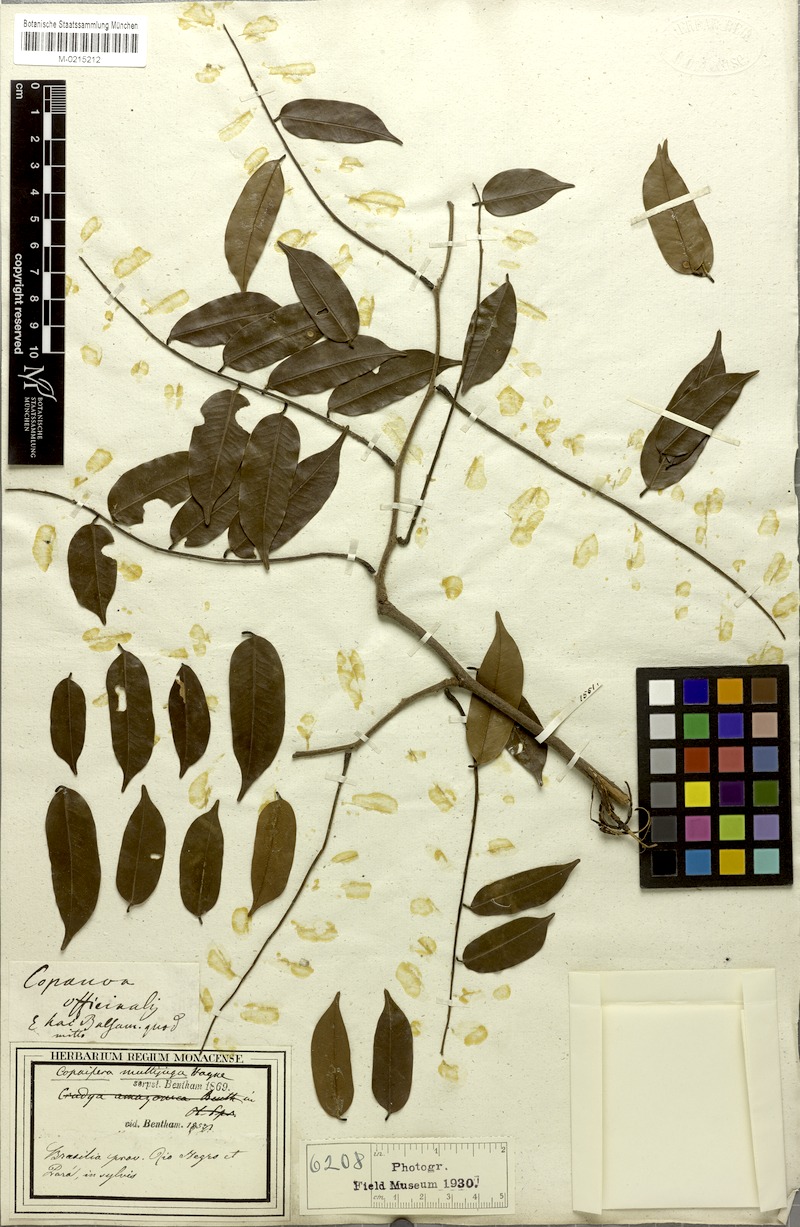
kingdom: Plantae
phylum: Tracheophyta
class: Magnoliopsida
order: Fabales
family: Fabaceae
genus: Copaifera
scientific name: Copaifera multijuga
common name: Brazilian copaiba
